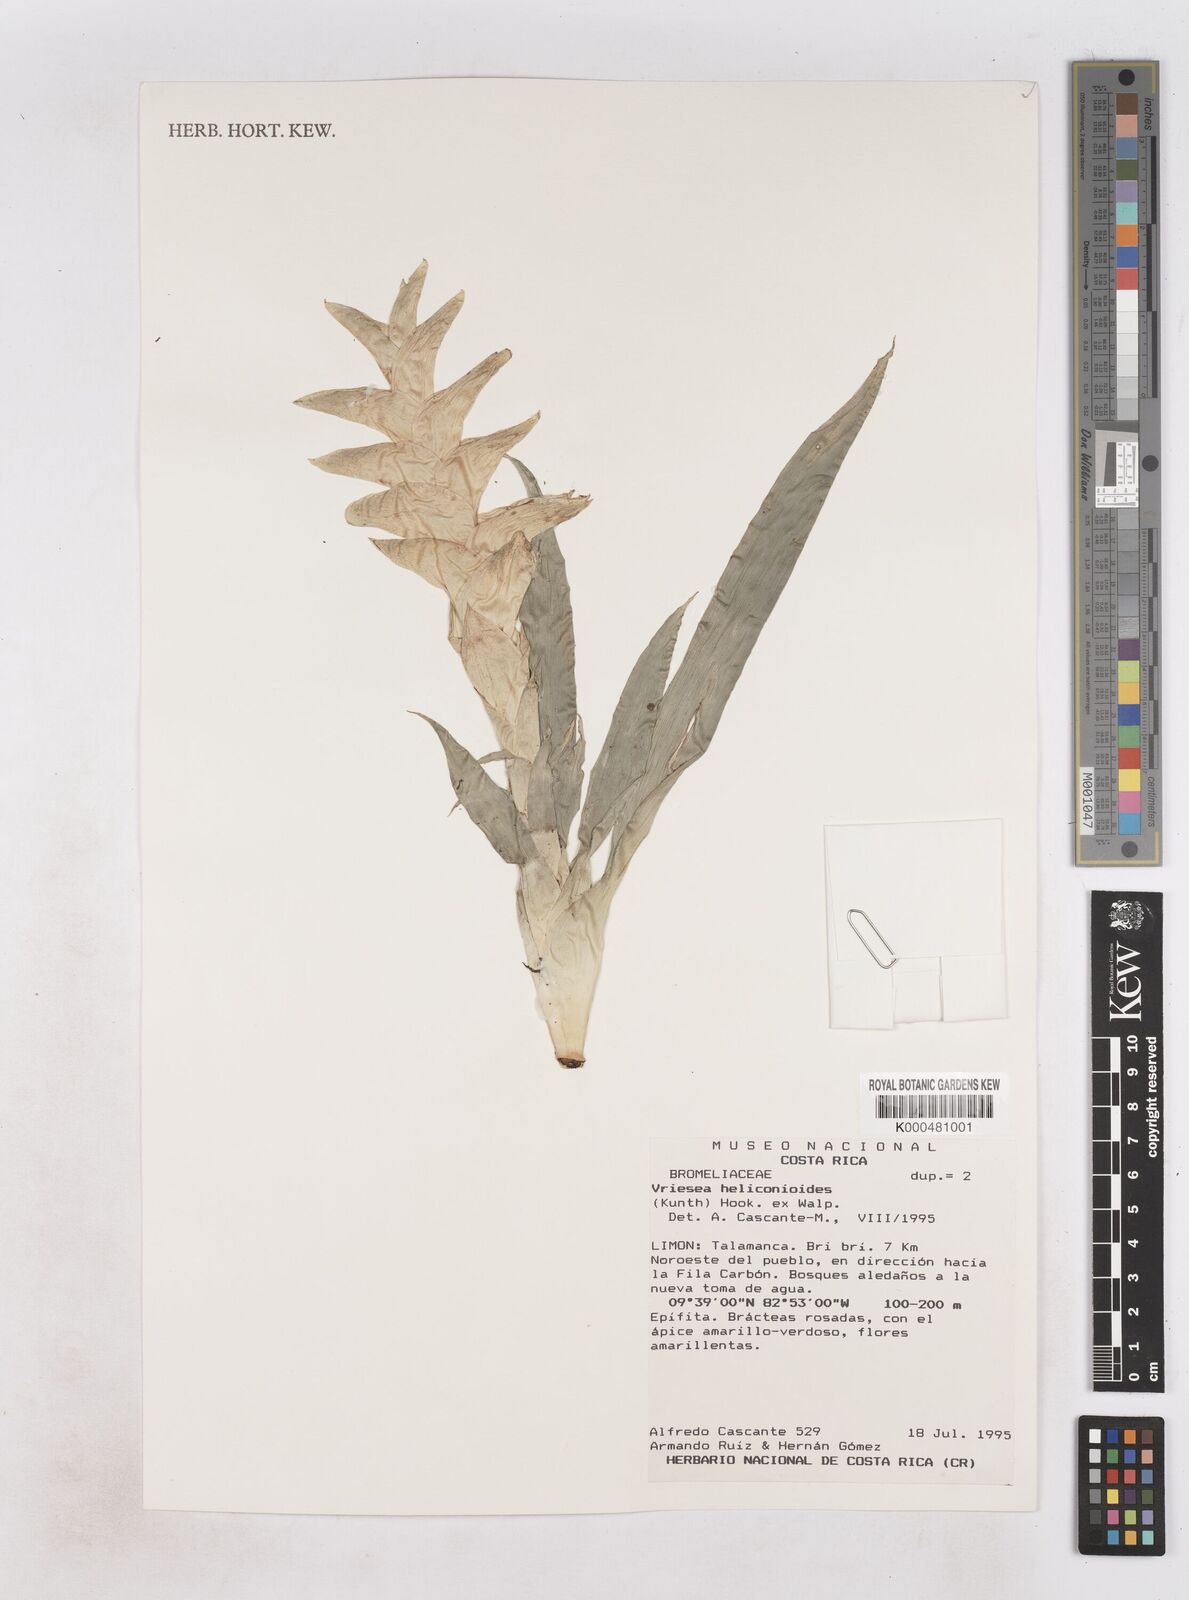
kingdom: Plantae
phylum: Tracheophyta
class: Liliopsida
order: Poales
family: Bromeliaceae
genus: Tillandsia
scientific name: Tillandsia heliconioides
